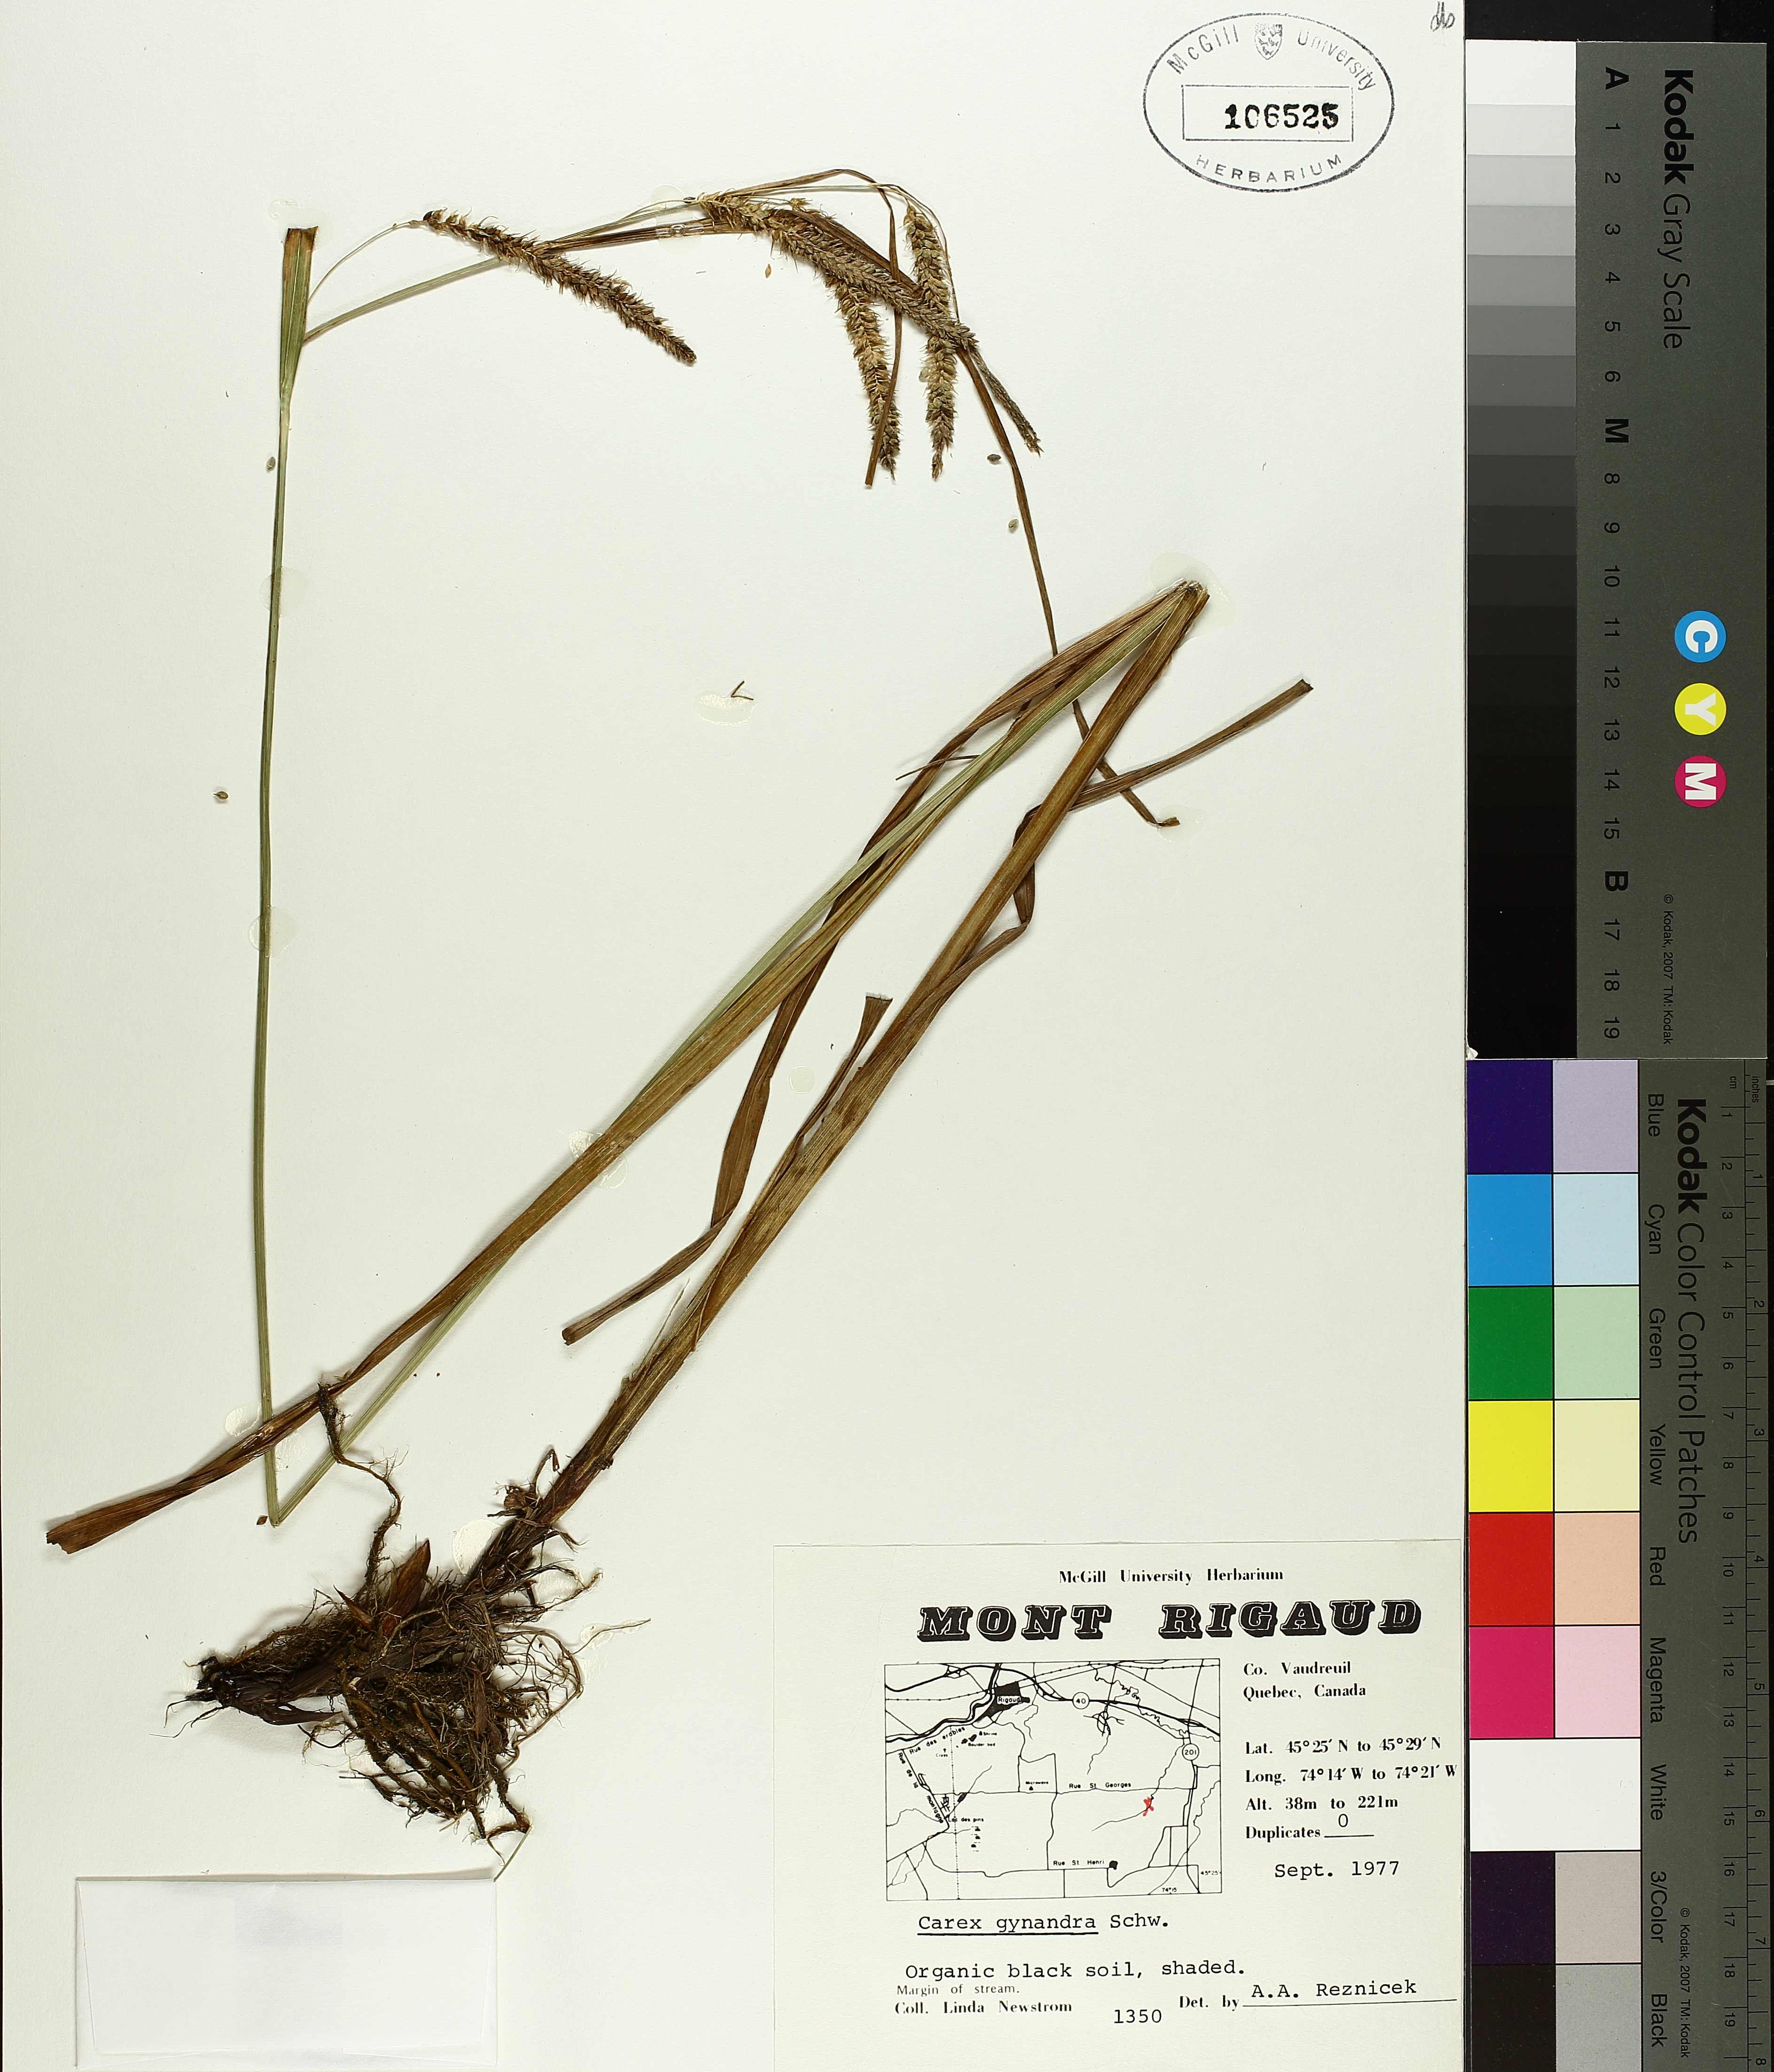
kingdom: Plantae
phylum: Tracheophyta
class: Liliopsida
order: Poales
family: Cyperaceae
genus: Carex
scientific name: Carex gynandra
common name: Nodding sedge
